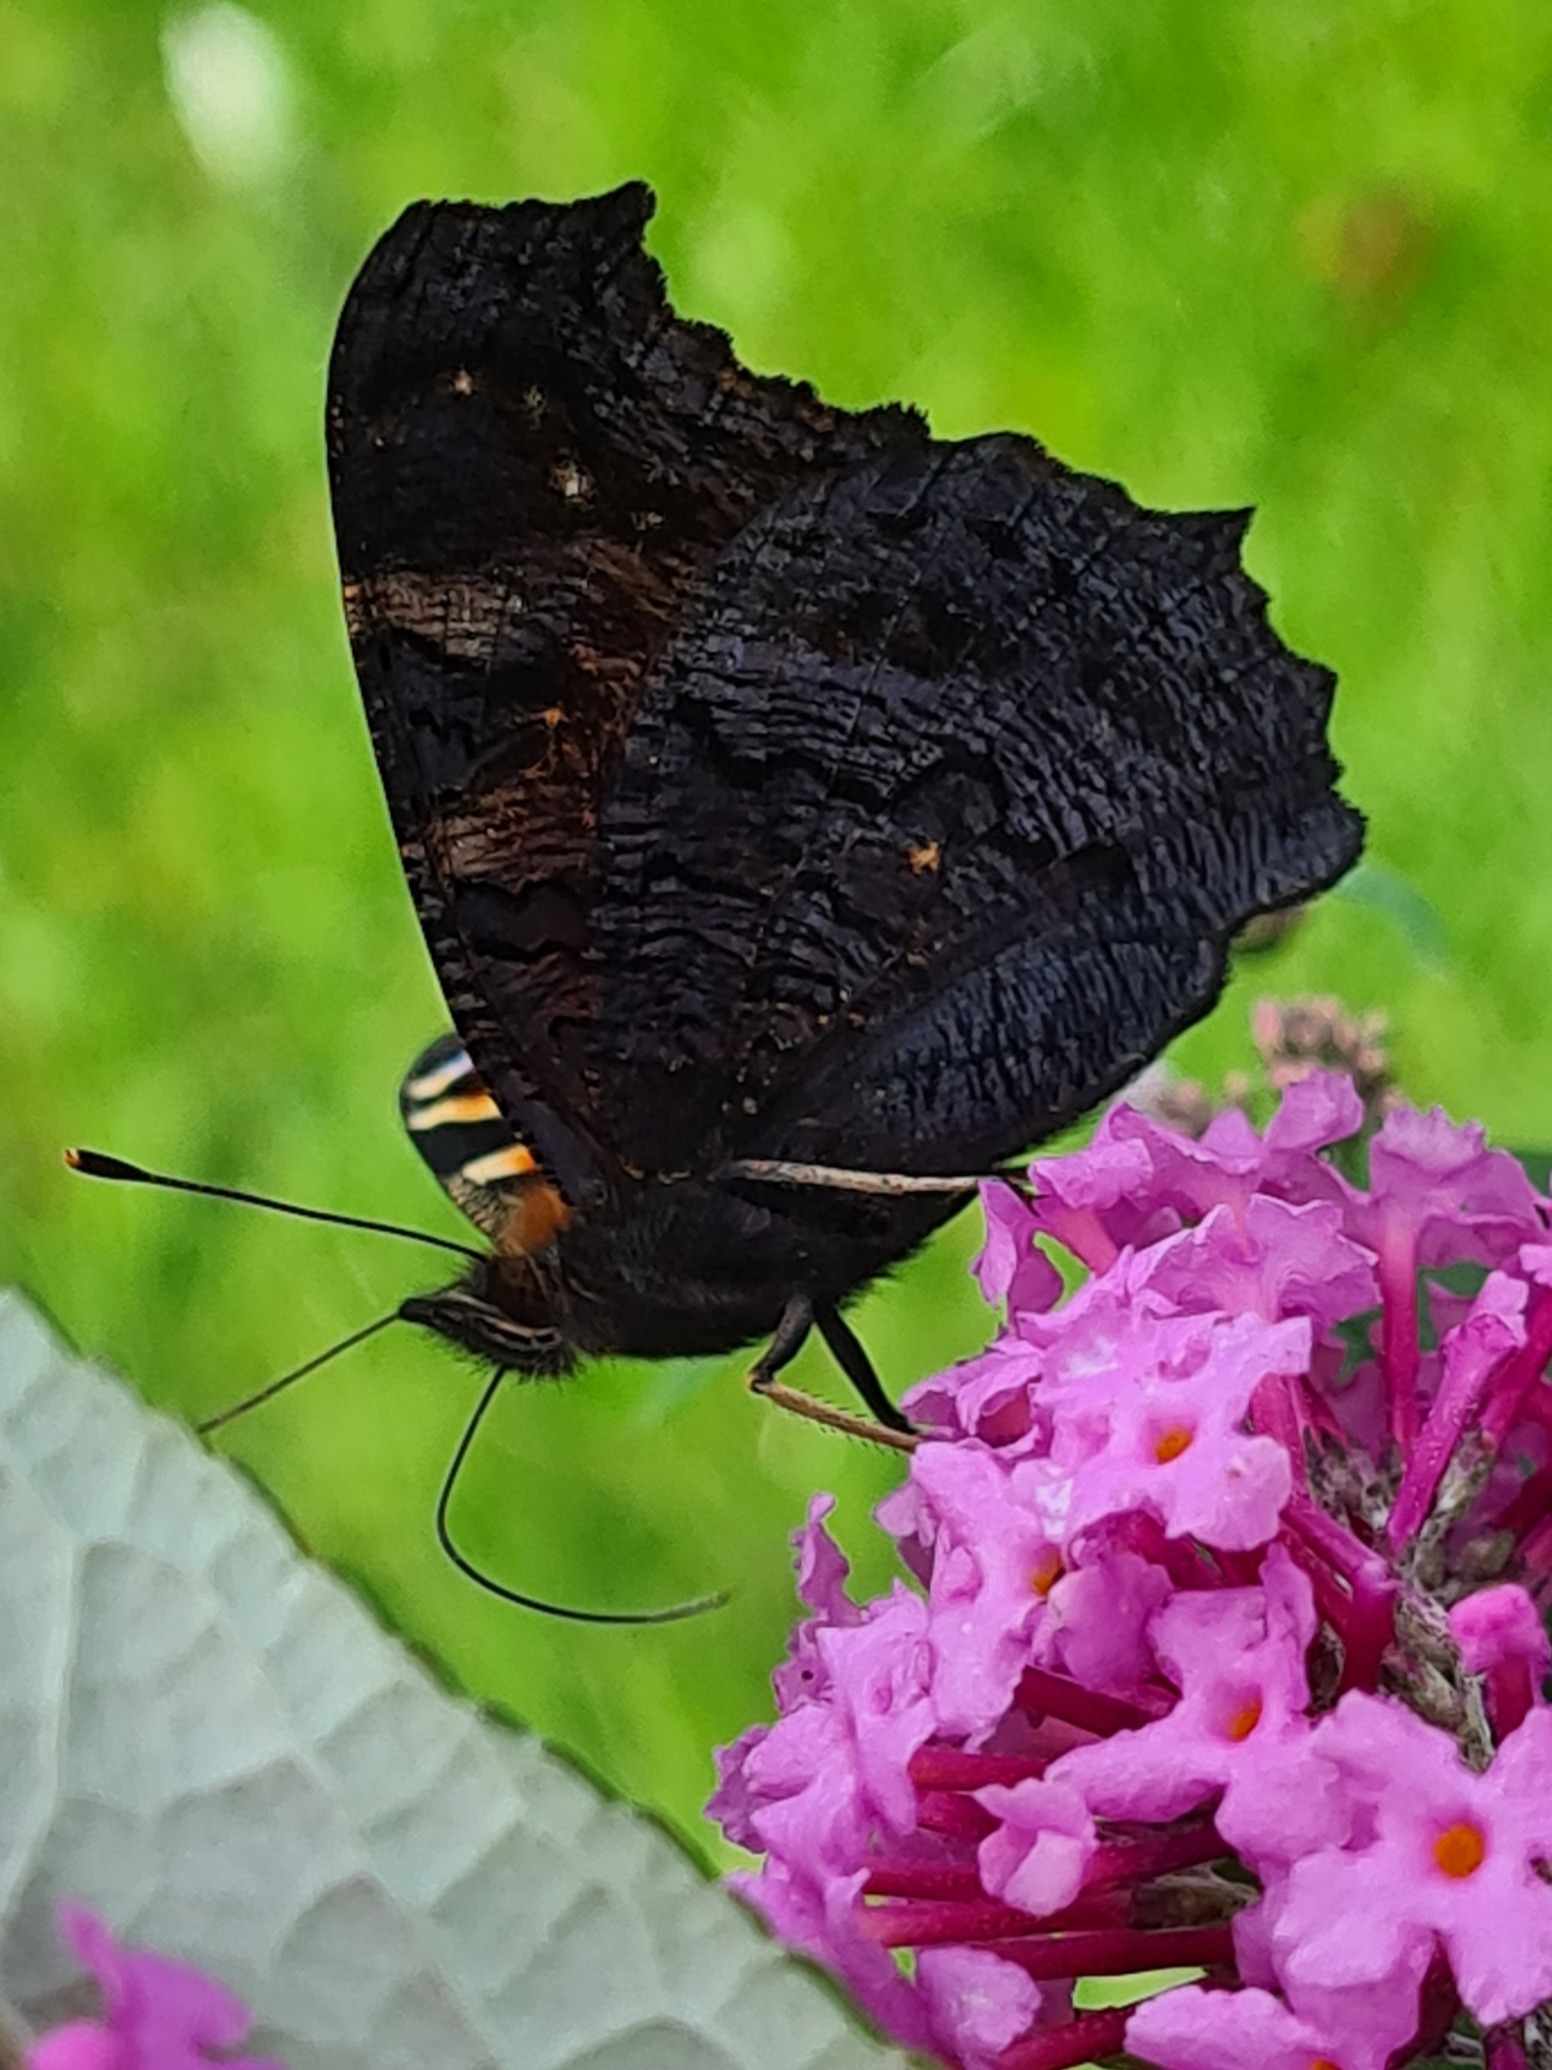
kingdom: Animalia
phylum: Arthropoda
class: Insecta
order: Lepidoptera
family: Nymphalidae
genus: Aglais
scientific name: Aglais io
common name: Dagpåfugleøje
